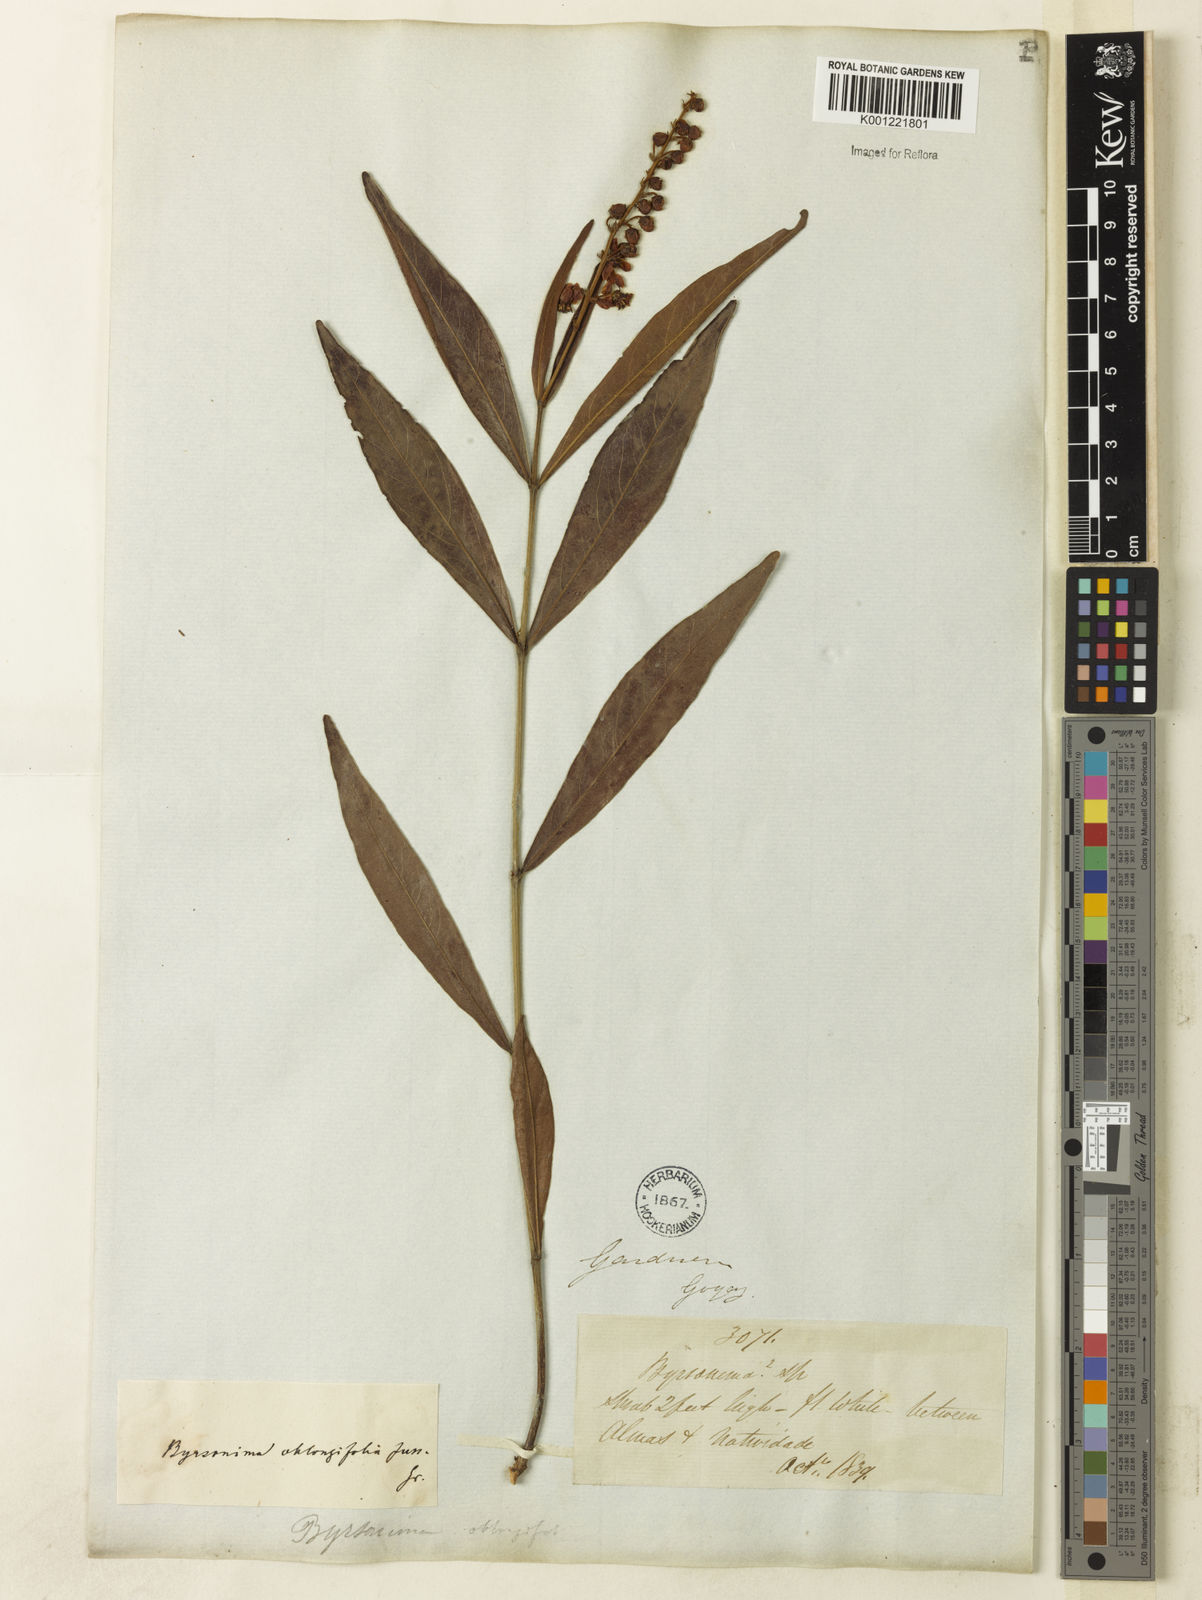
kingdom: Plantae
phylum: Tracheophyta
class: Magnoliopsida
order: Malpighiales
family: Malpighiaceae
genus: Byrsonima
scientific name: Byrsonima oblongifolia
